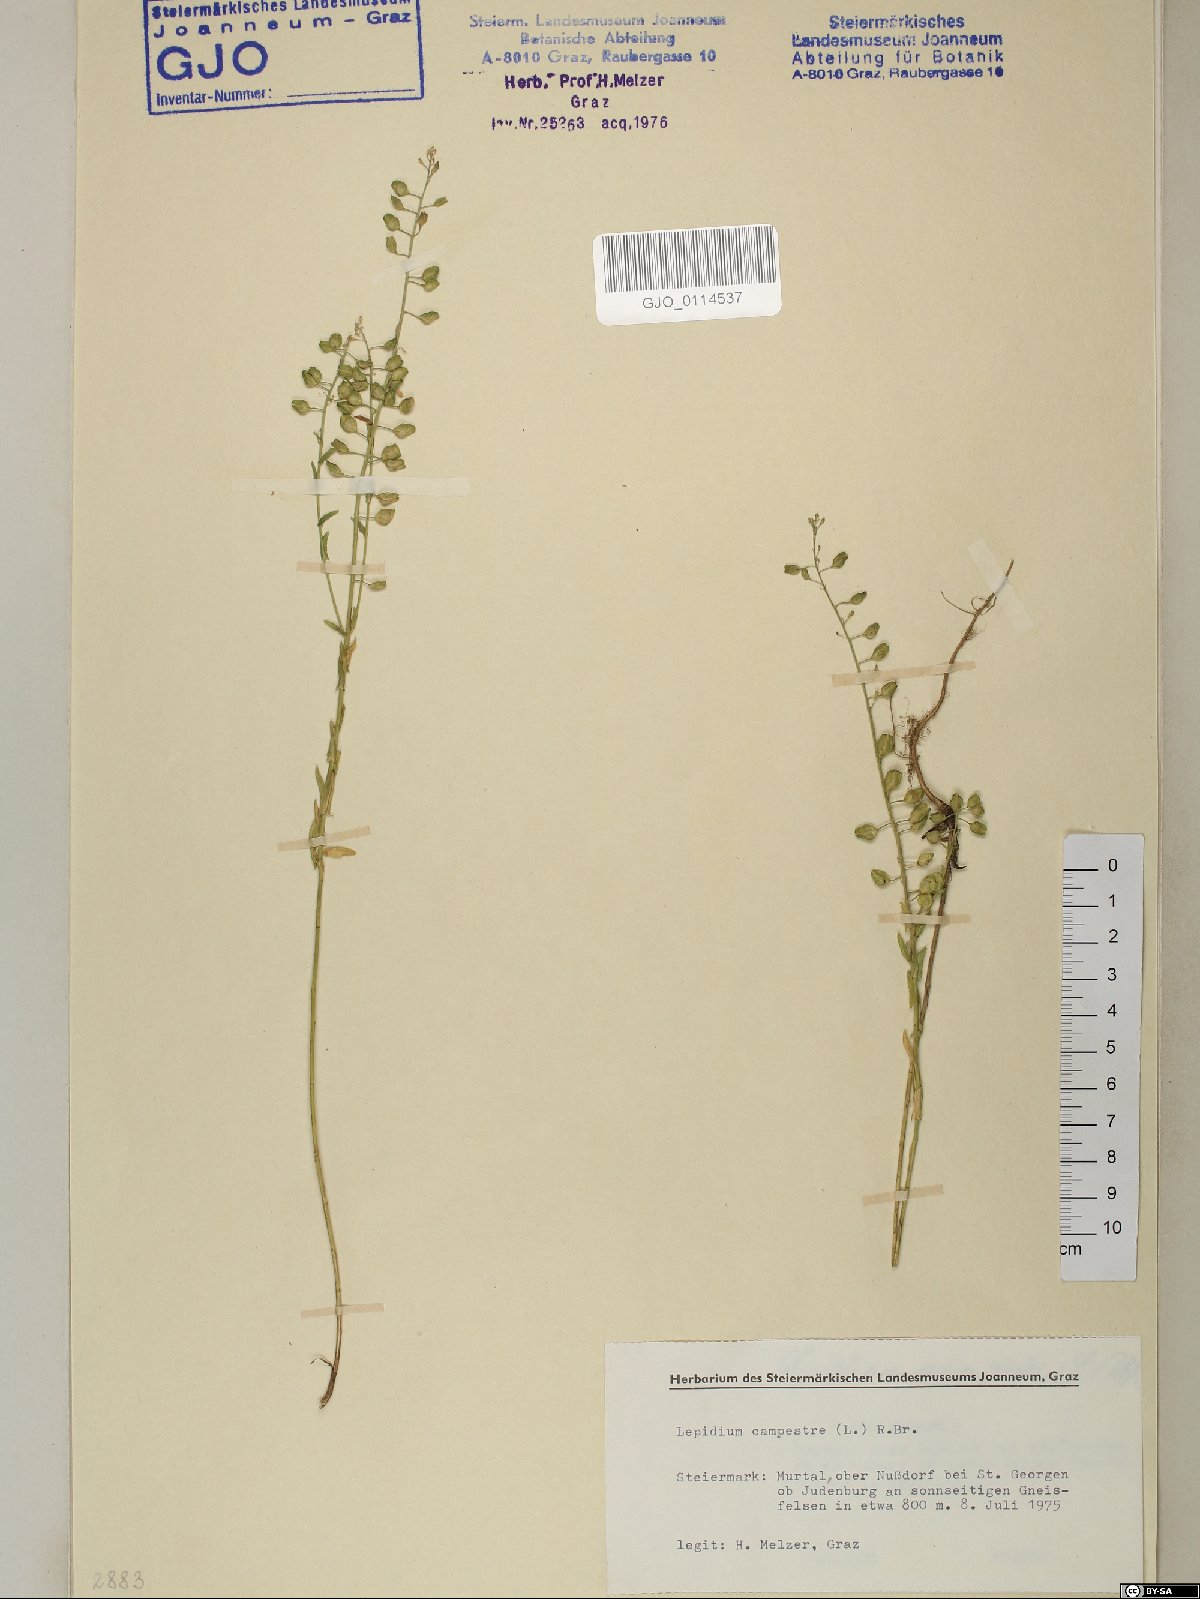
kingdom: Plantae
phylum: Tracheophyta
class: Magnoliopsida
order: Brassicales
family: Brassicaceae
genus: Lepidium
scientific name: Lepidium campestre
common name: Field pepperwort
